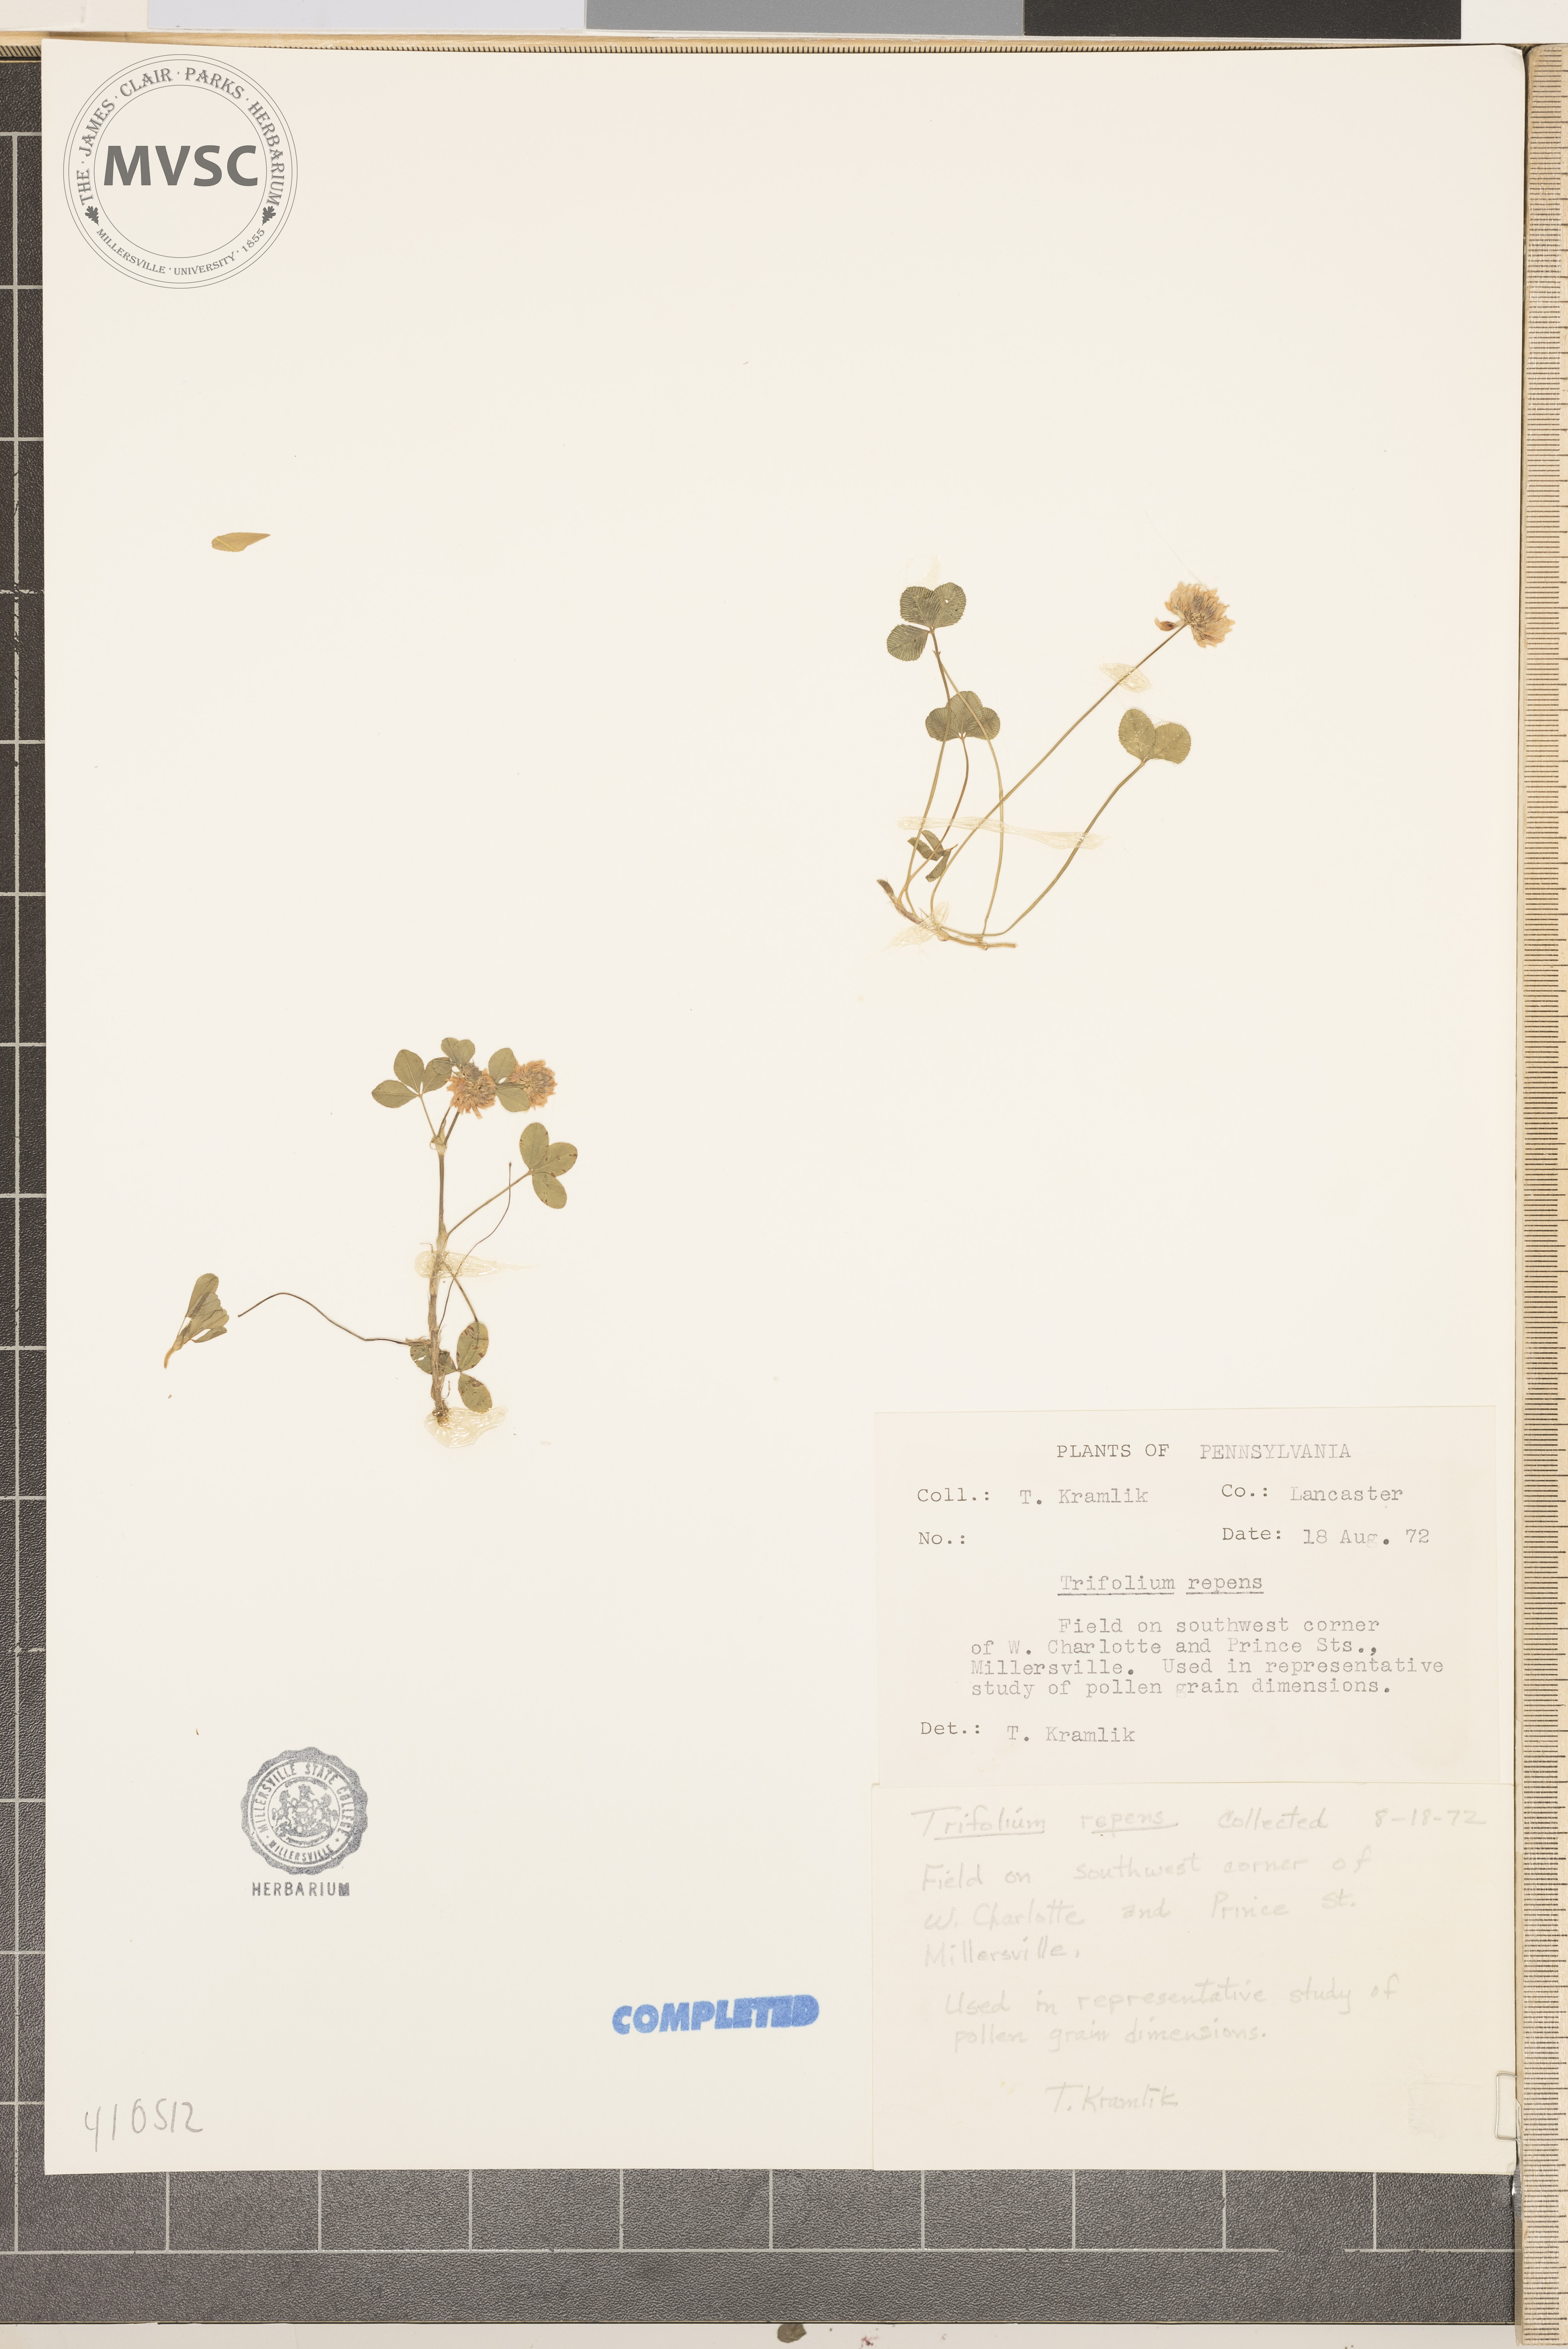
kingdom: Plantae
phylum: Tracheophyta
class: Magnoliopsida
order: Fabales
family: Fabaceae
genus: Trifolium
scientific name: Trifolium repens
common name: White clover
